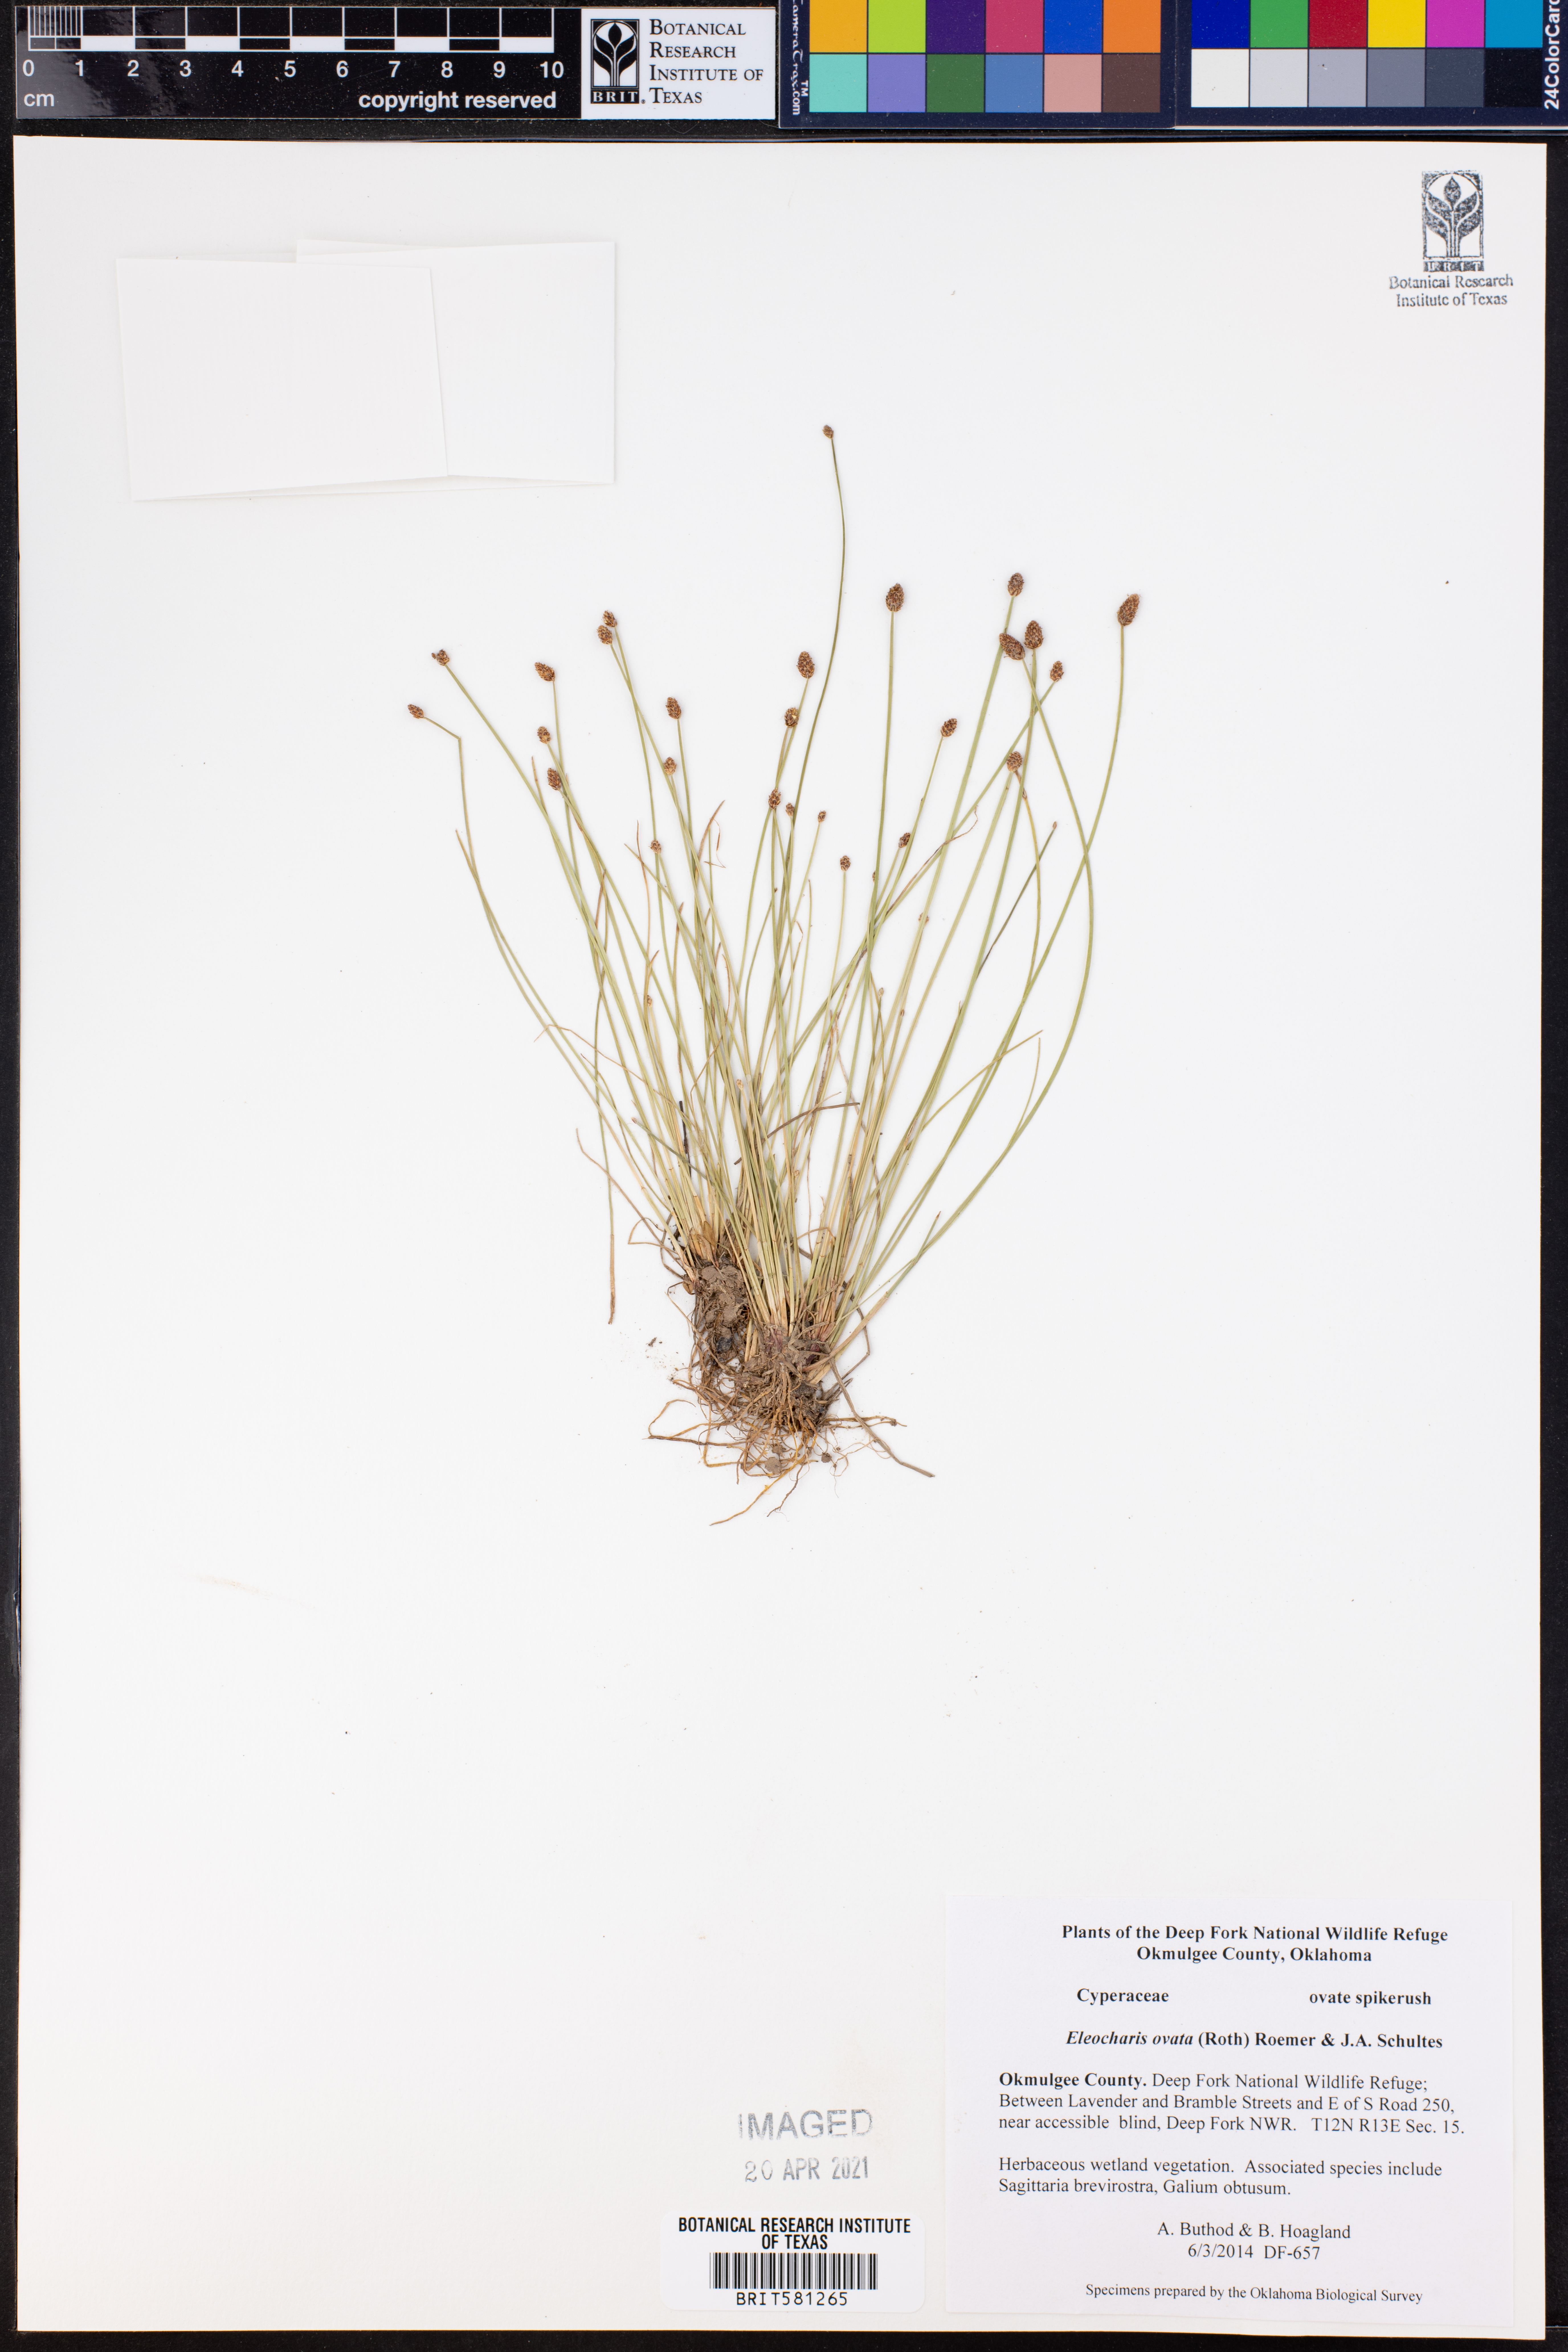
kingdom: Plantae
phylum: Tracheophyta
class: Liliopsida
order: Poales
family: Cyperaceae
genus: Eleocharis
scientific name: Eleocharis ovata
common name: Oval spike-rush
